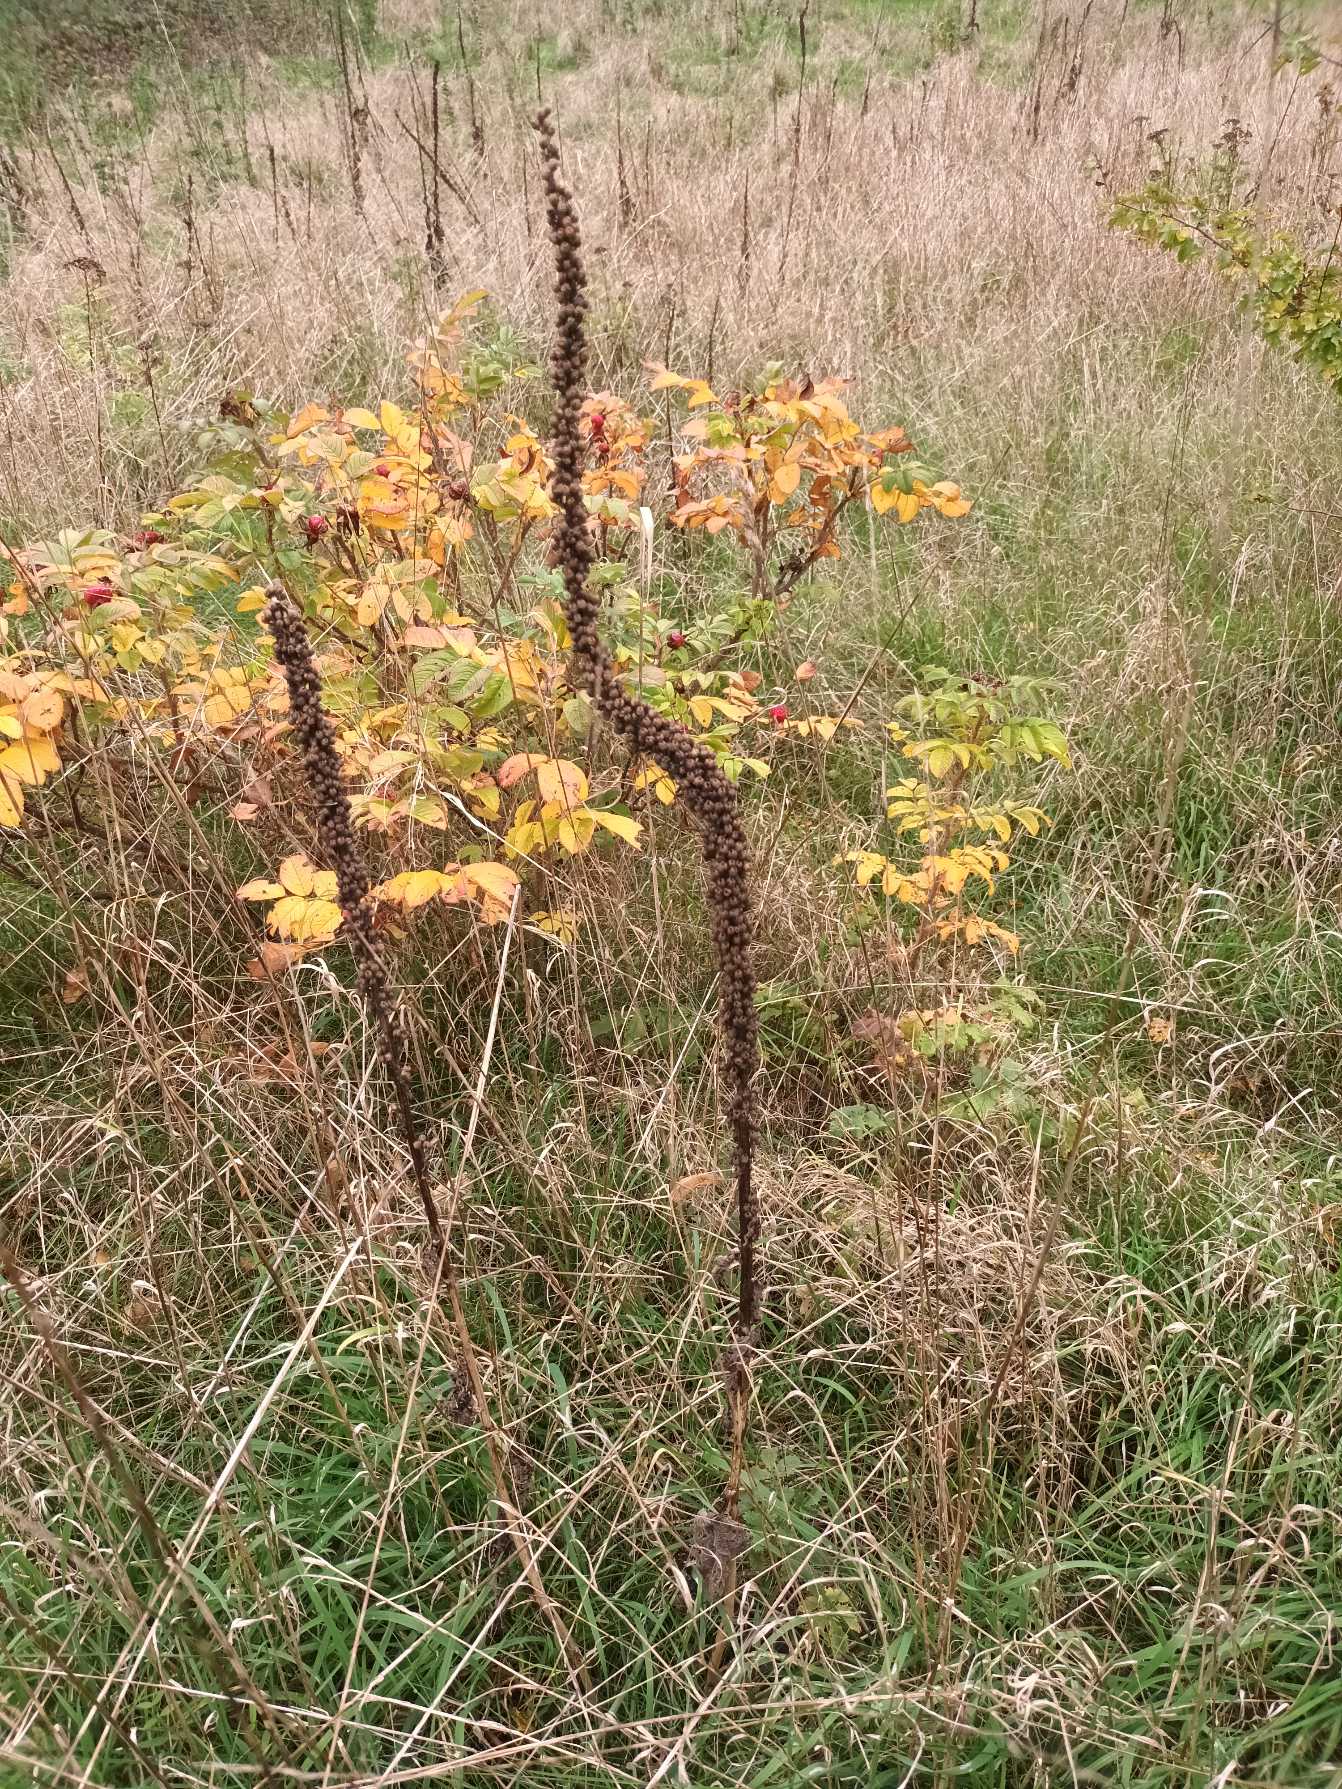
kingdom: Plantae
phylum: Tracheophyta
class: Magnoliopsida
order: Lamiales
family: Scrophulariaceae
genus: Verbascum
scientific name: Verbascum nigrum
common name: Mørk kongelys
